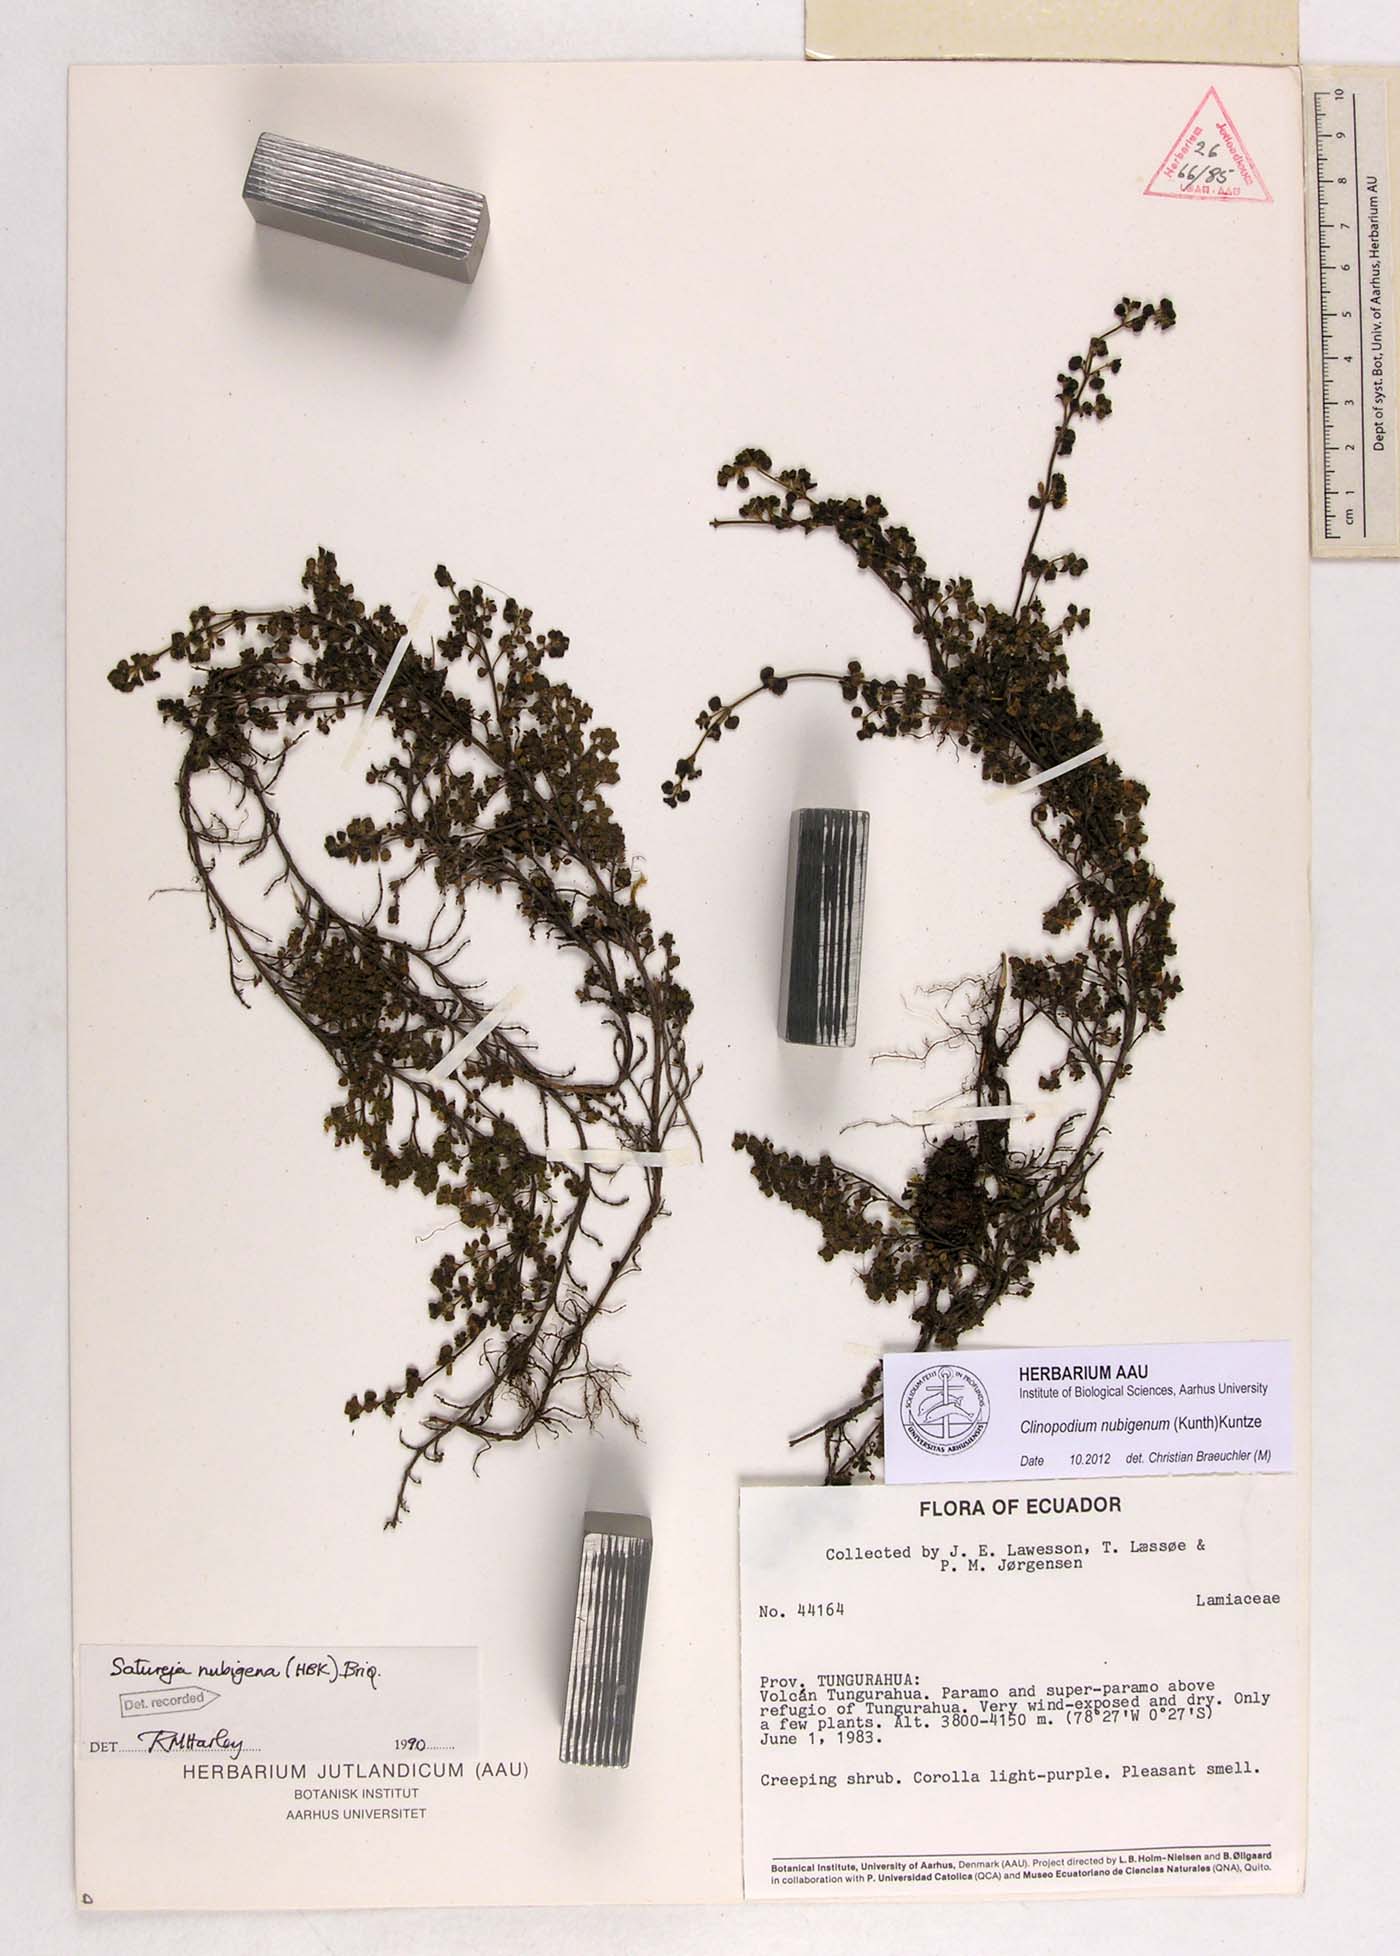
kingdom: Plantae
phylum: Tracheophyta
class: Magnoliopsida
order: Lamiales
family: Lamiaceae
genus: Clinopodium
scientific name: Clinopodium nubigenum
